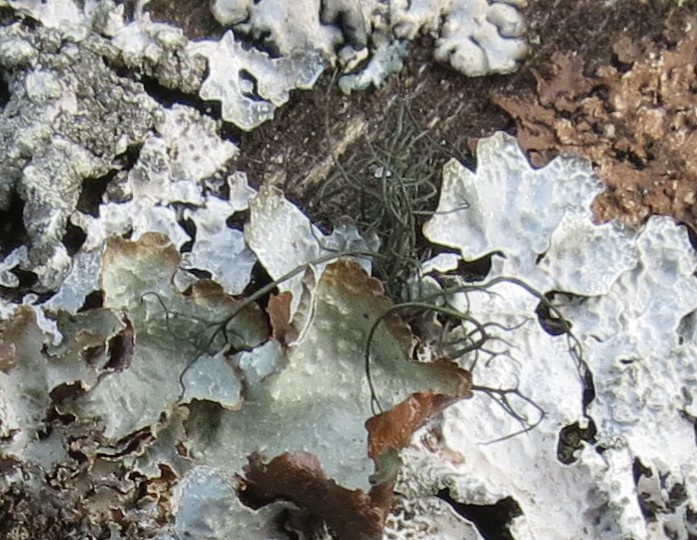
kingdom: Fungi
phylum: Ascomycota
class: Lecanoromycetes
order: Lecanorales
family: Parmeliaceae
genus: Bryoria
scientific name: Bryoria
